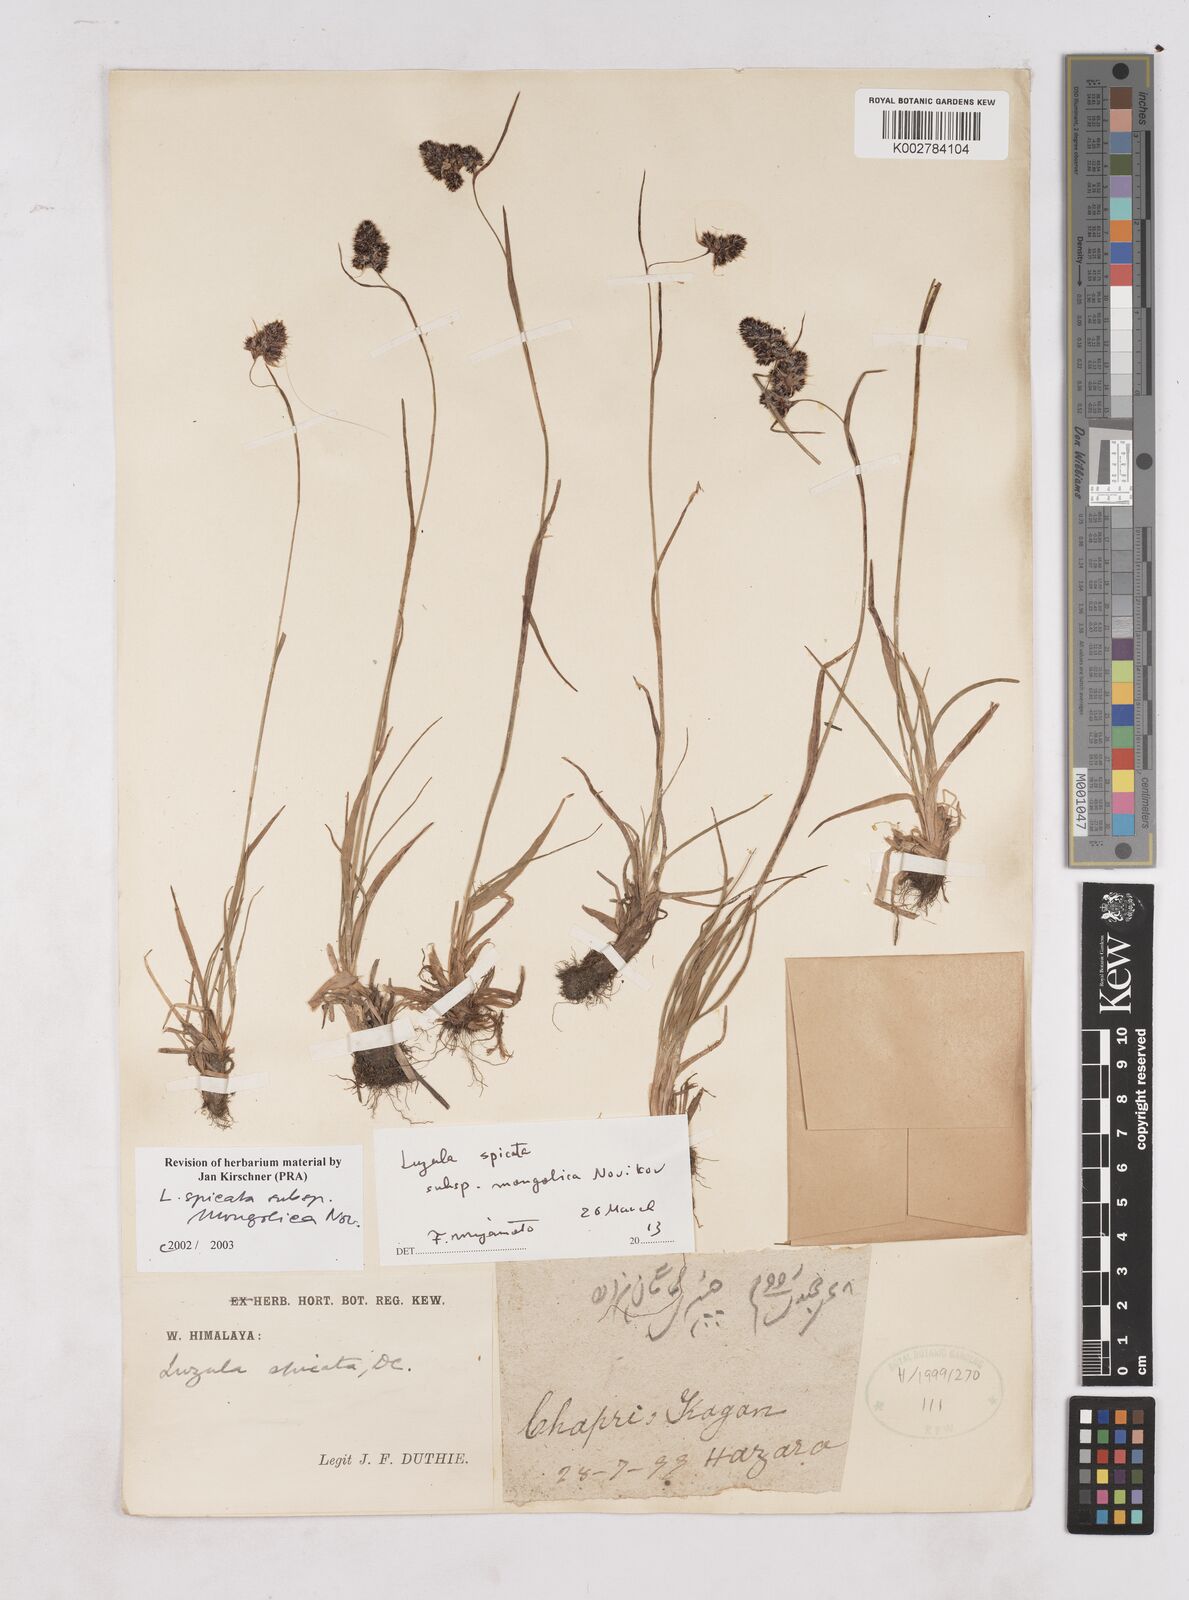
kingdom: Plantae
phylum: Tracheophyta
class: Liliopsida
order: Poales
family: Juncaceae
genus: Luzula
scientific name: Luzula spicata
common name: Spiked wood-rush
